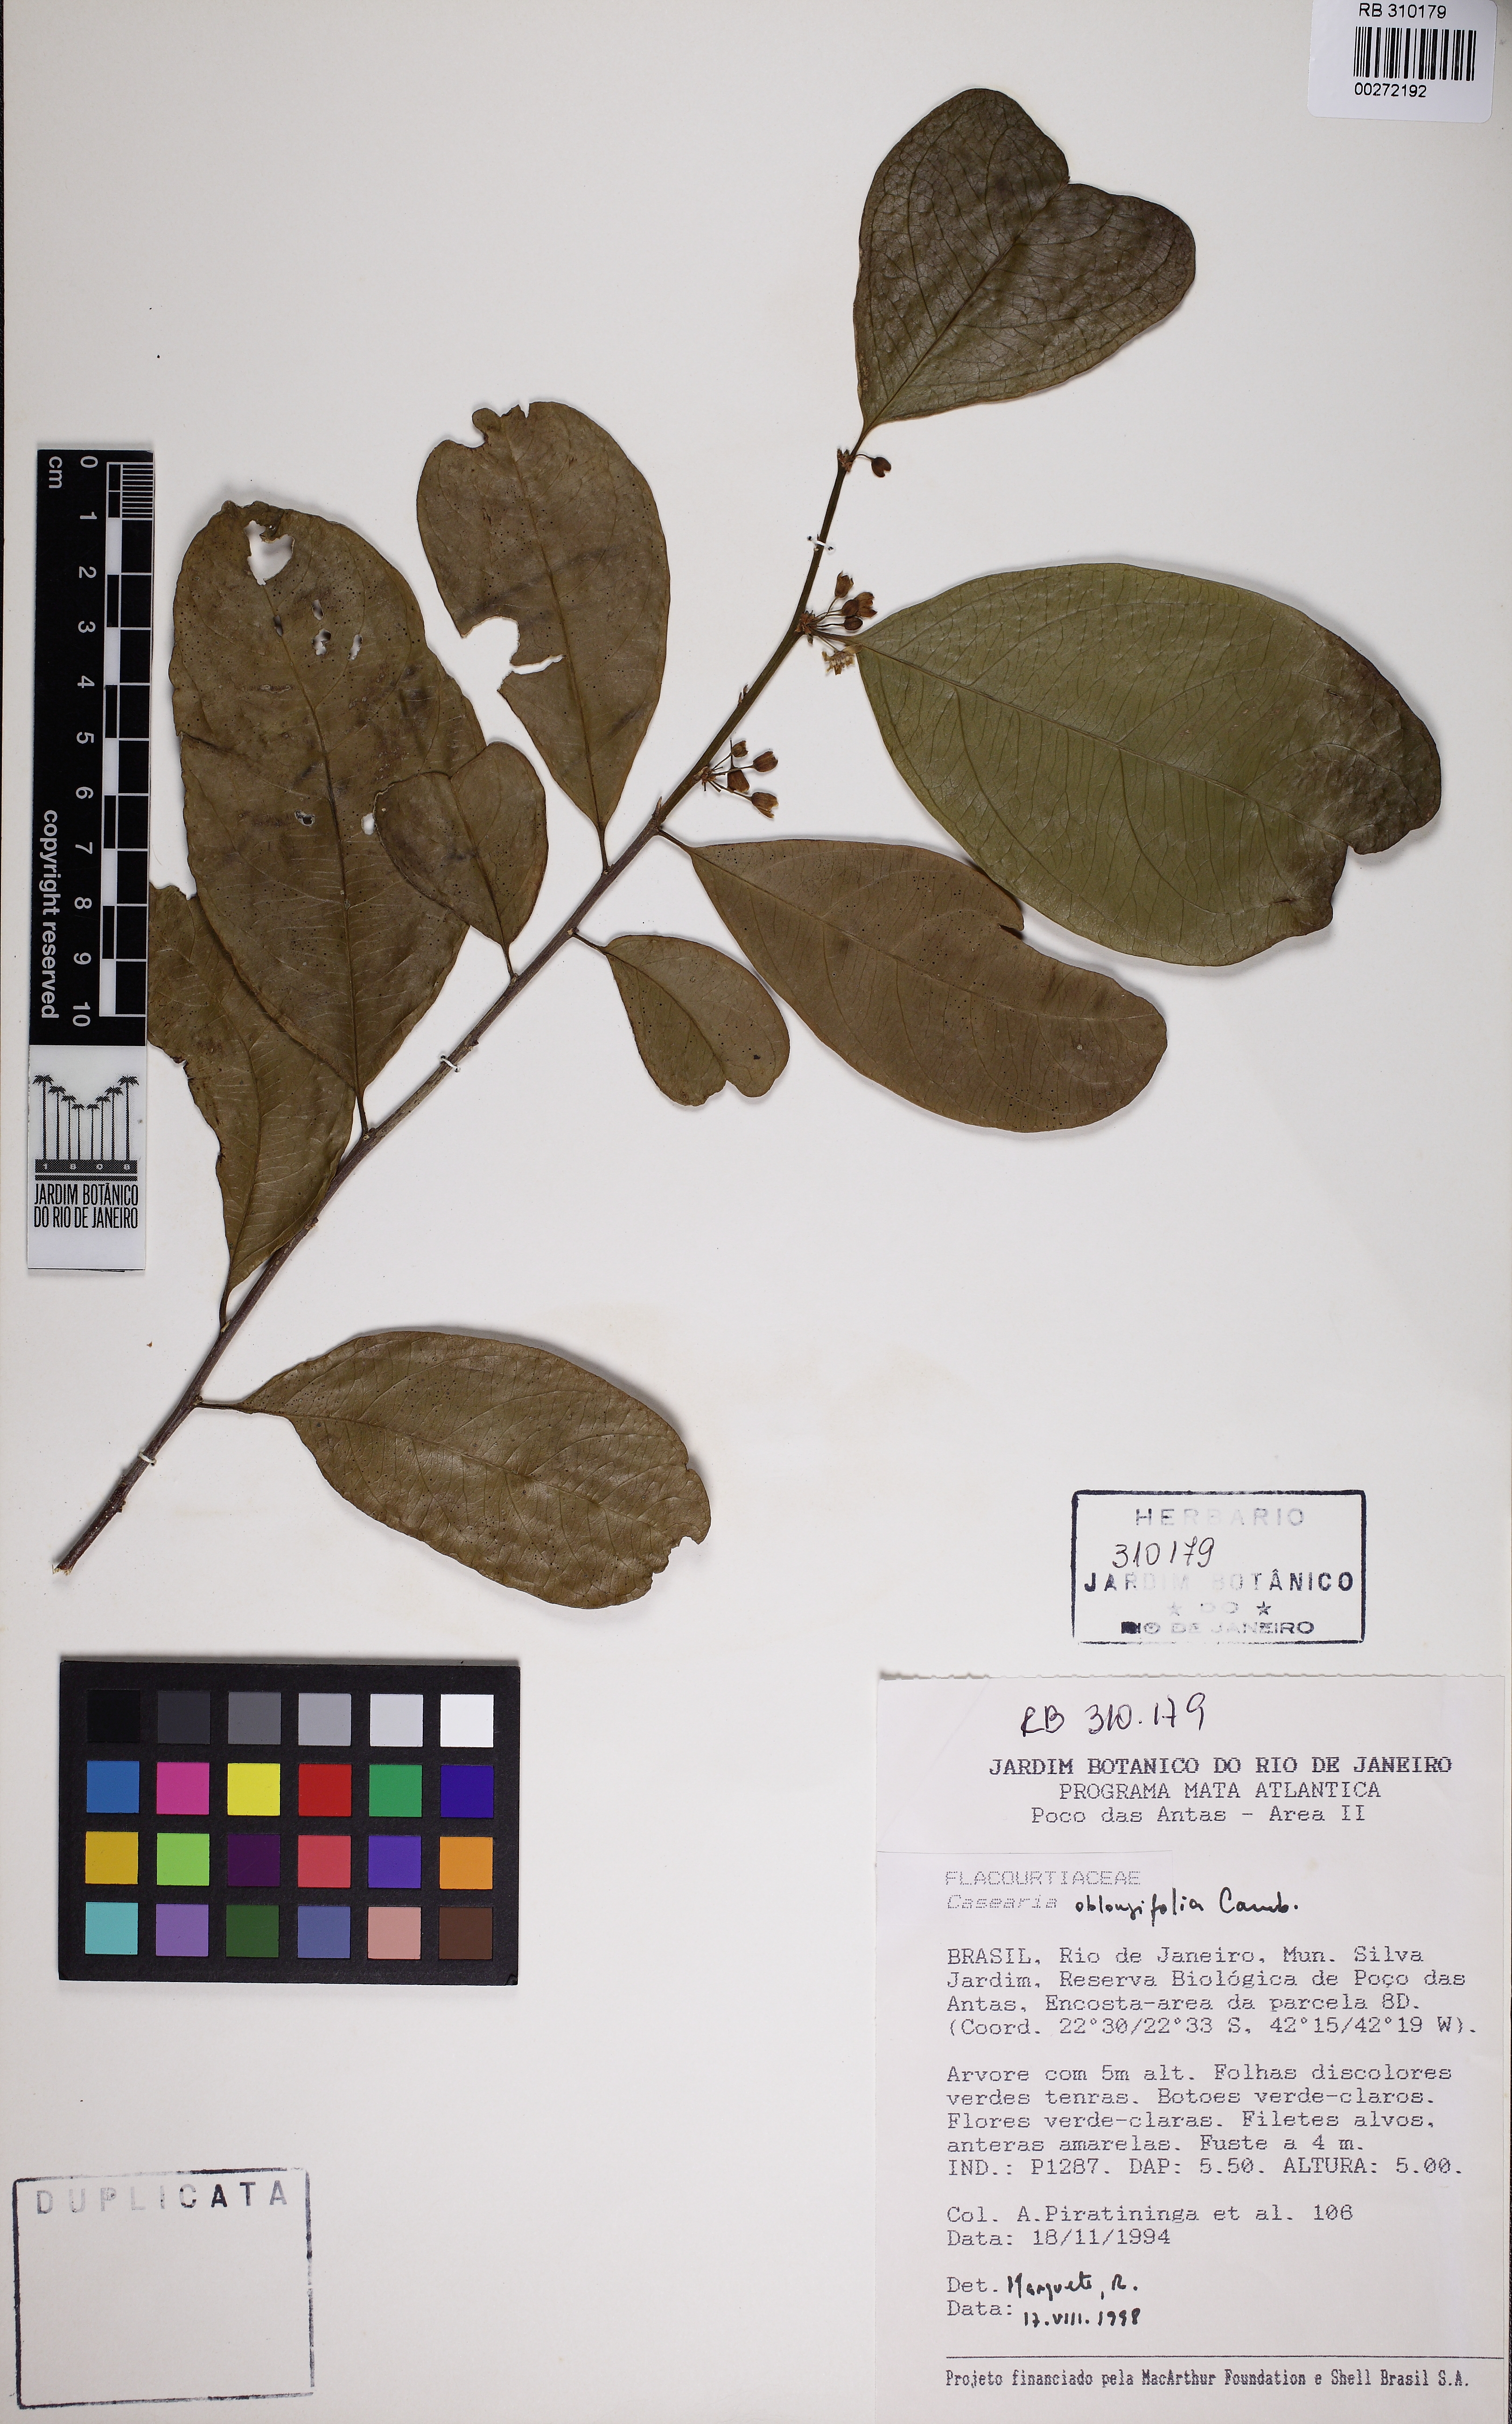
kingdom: Plantae
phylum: Tracheophyta
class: Magnoliopsida
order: Malpighiales
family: Salicaceae
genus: Casearia
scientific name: Casearia oblongifolia
